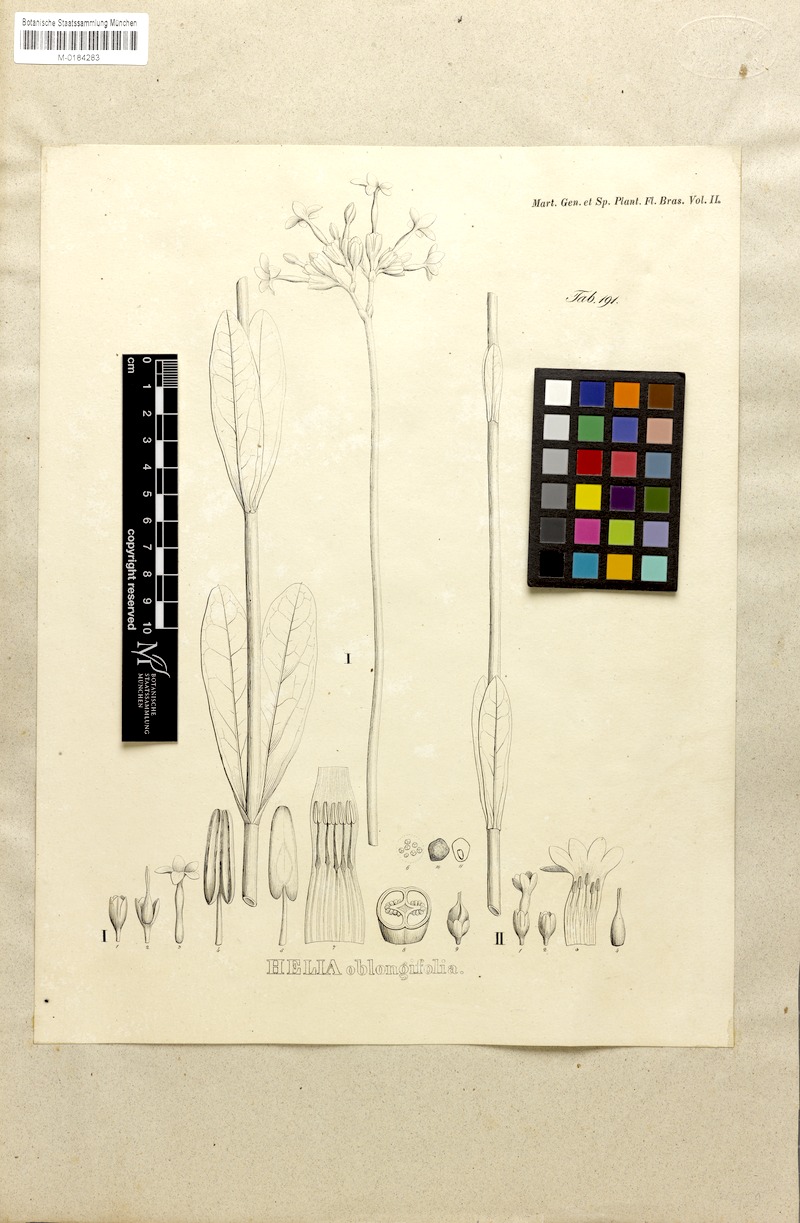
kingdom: Plantae
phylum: Tracheophyta
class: Magnoliopsida
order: Gentianales
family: Gentianaceae
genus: Irlbachia
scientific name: Irlbachia oblongifolia
